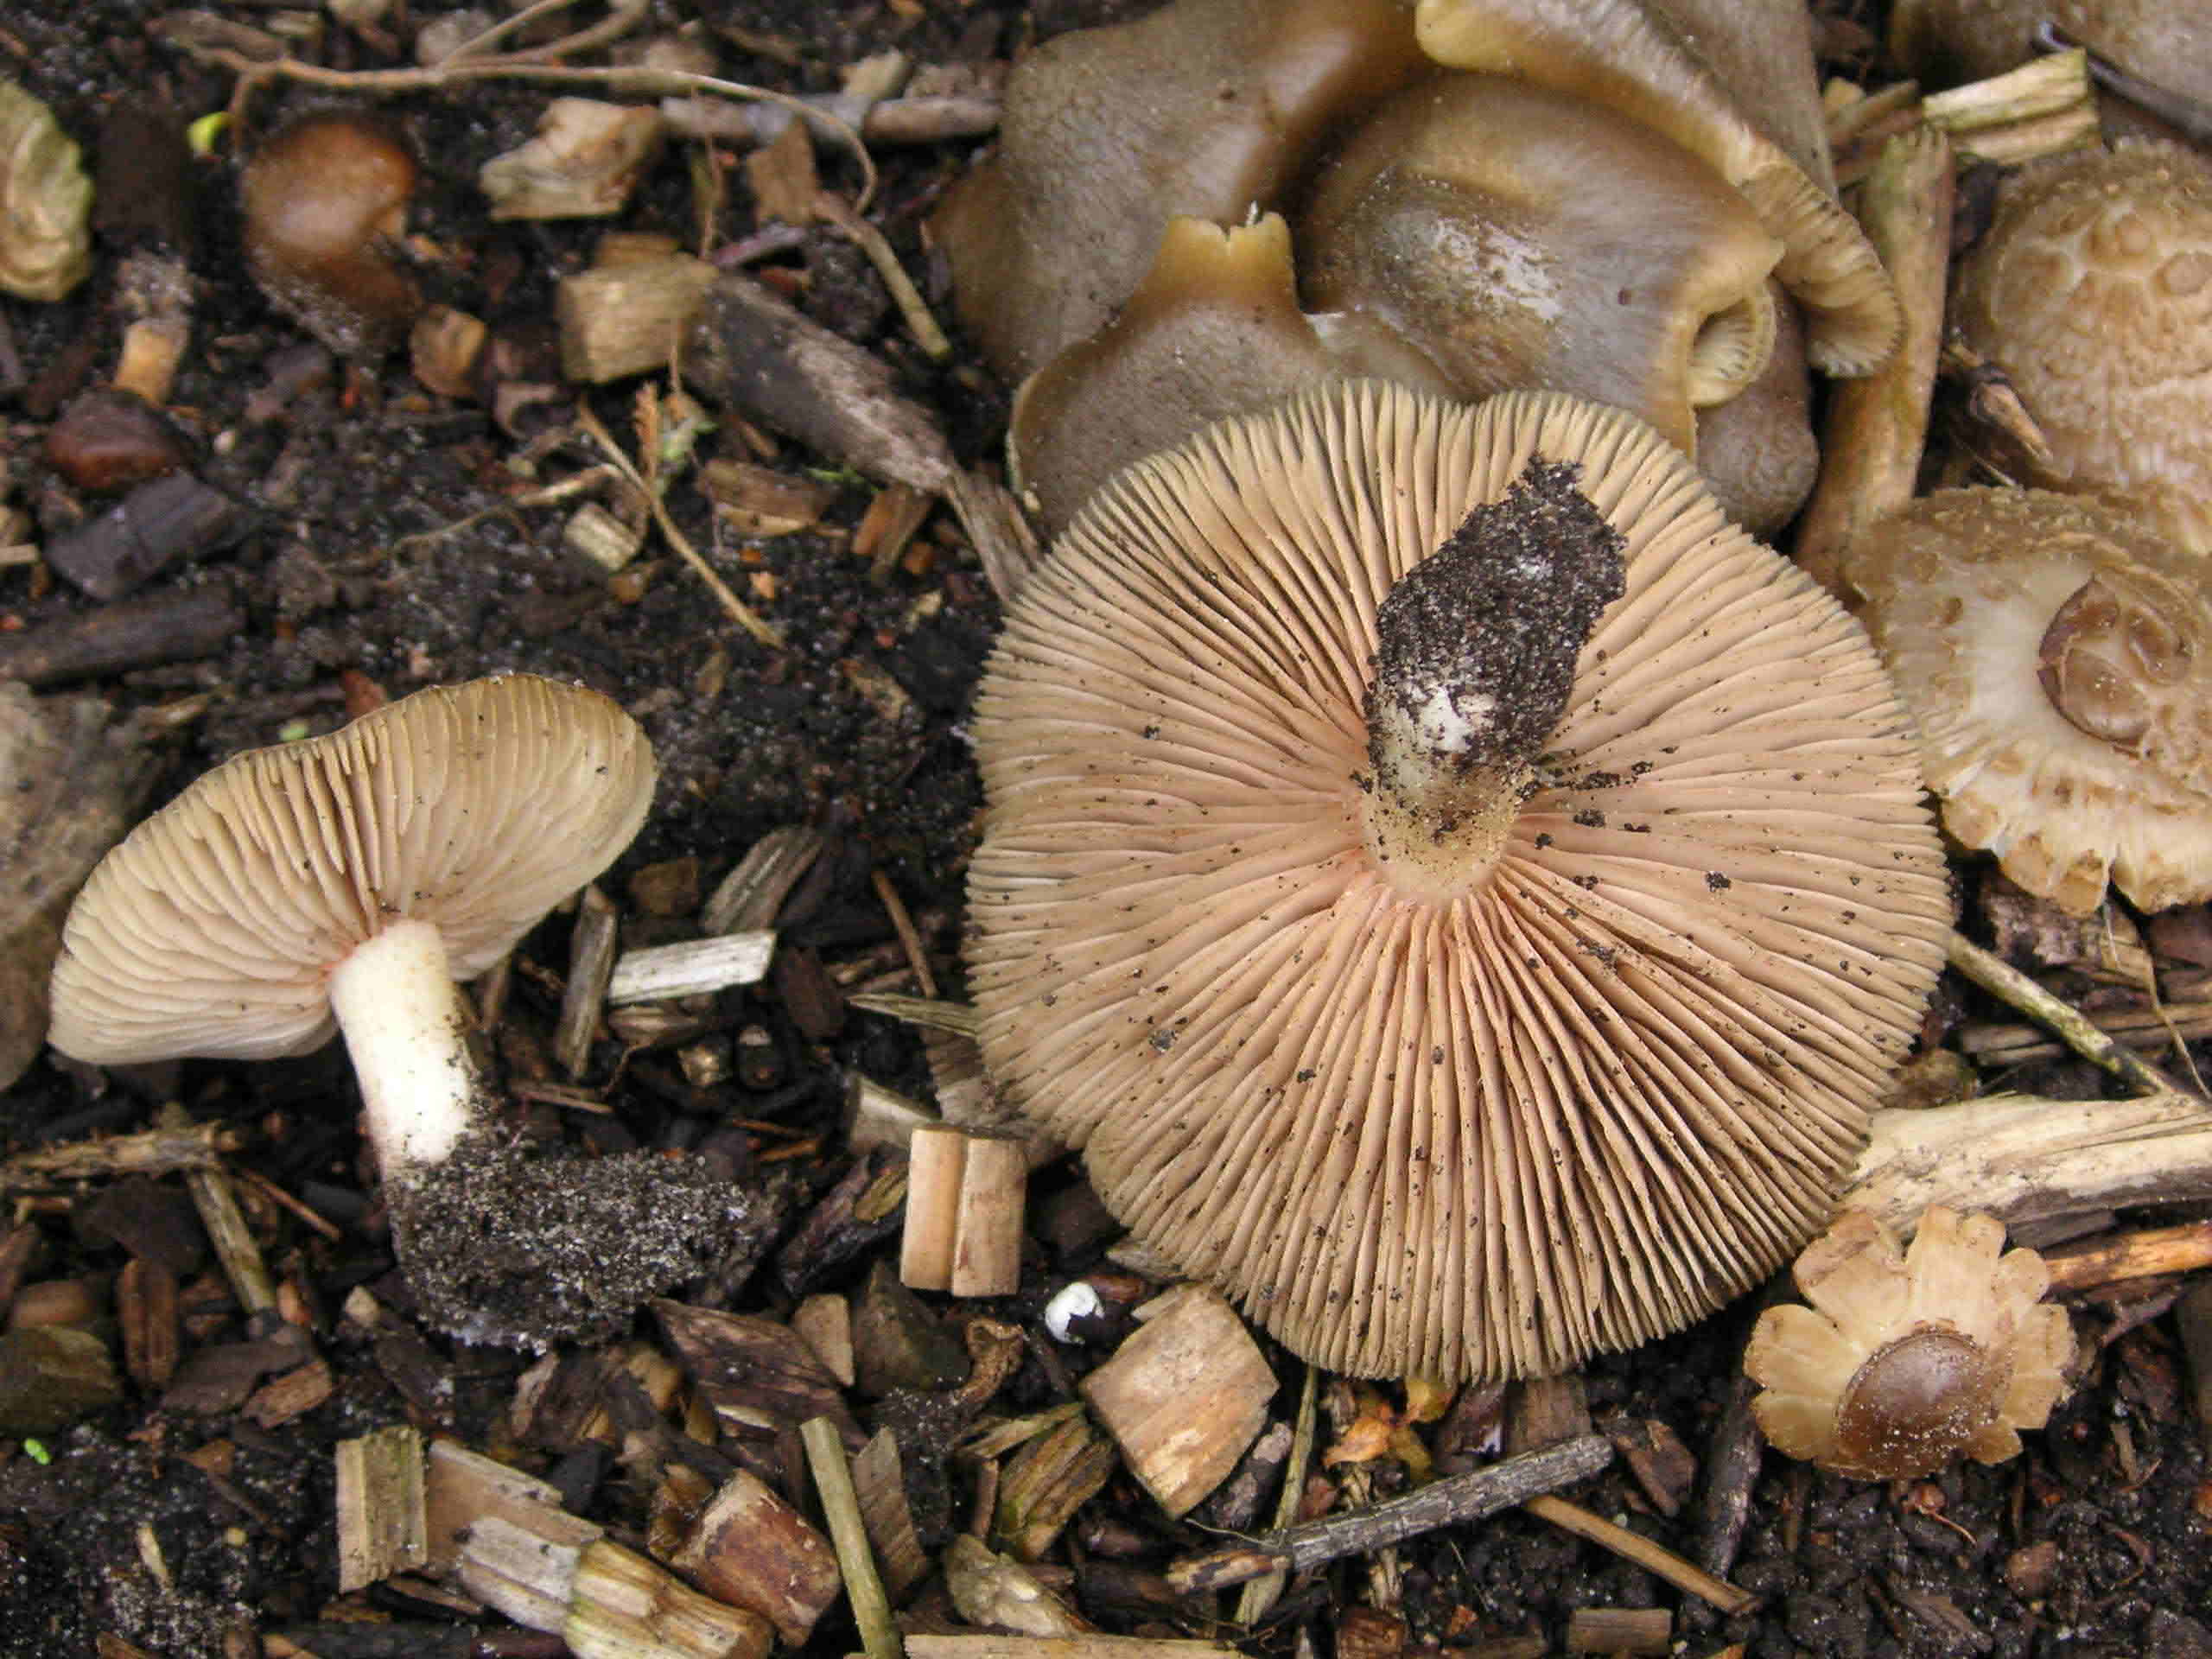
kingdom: Fungi
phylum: Basidiomycota
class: Agaricomycetes
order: Agaricales
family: Entolomataceae
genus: Entoloma
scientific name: Entoloma clypeatum
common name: flammet rødblad
